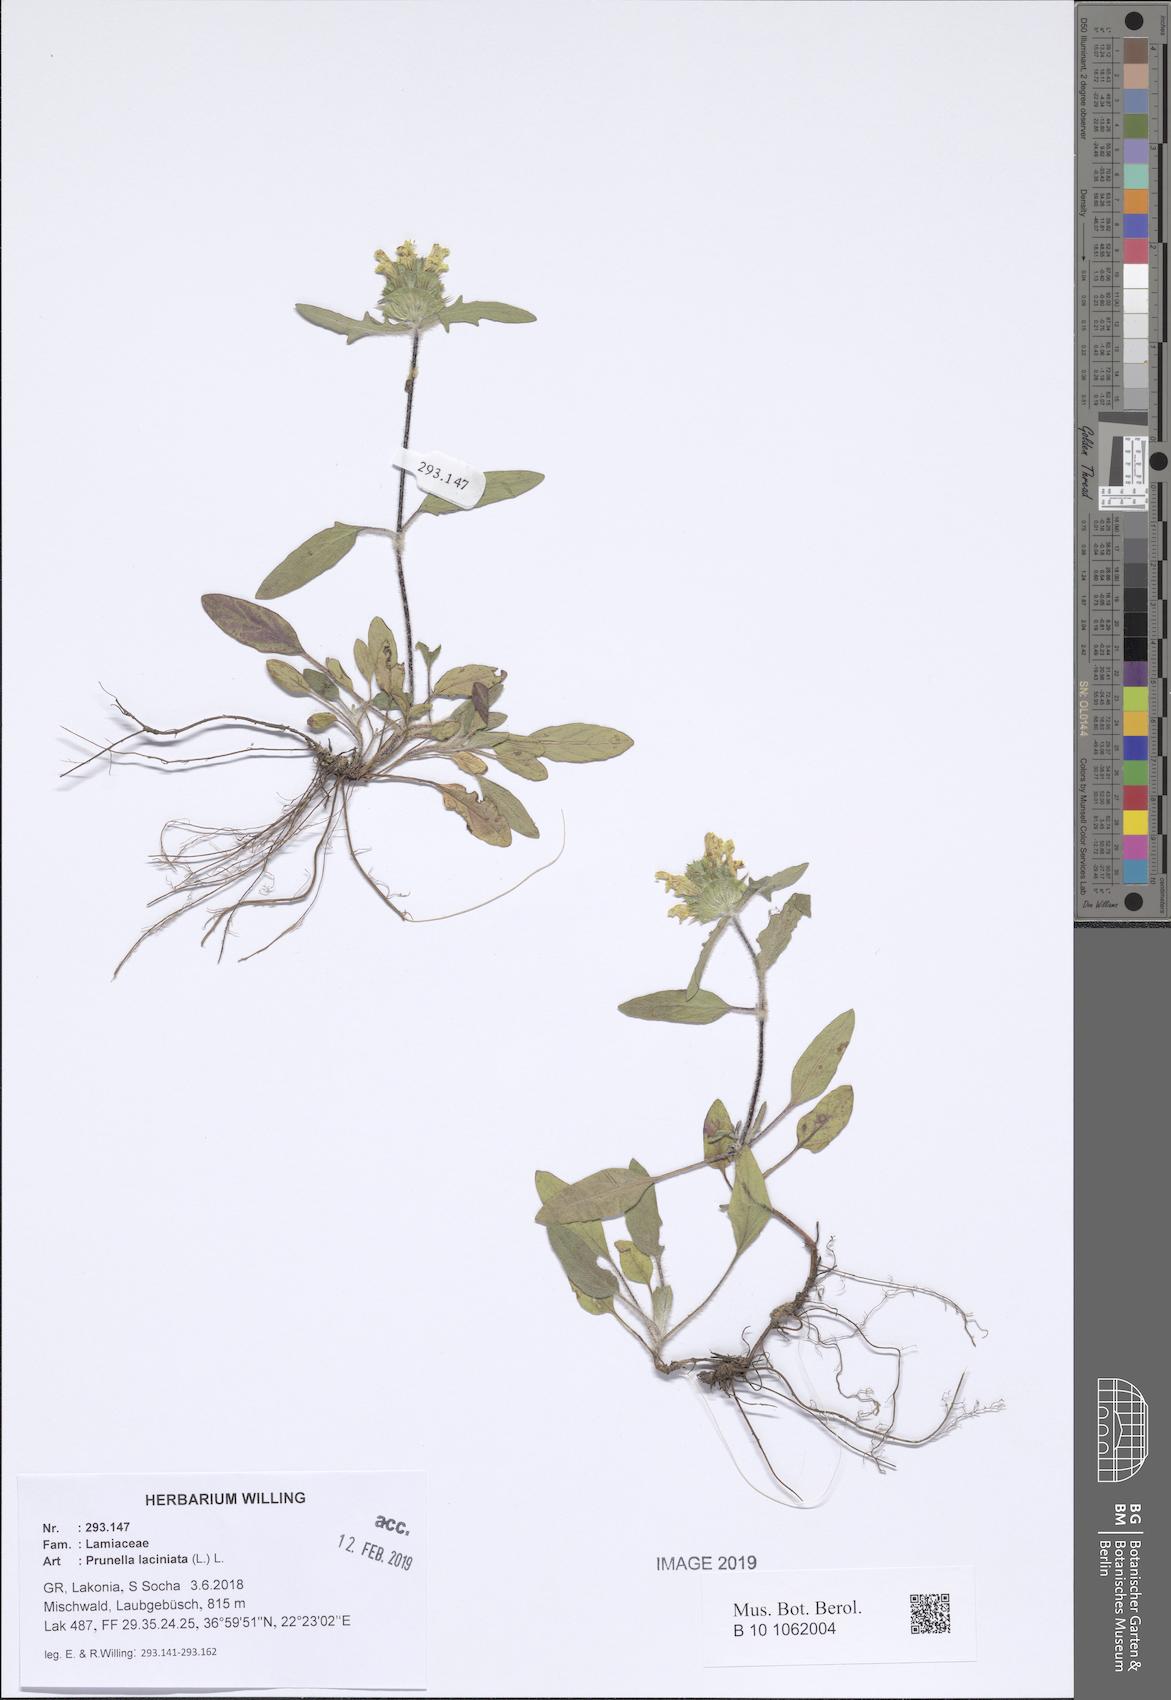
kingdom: Plantae
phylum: Tracheophyta
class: Magnoliopsida
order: Lamiales
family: Lamiaceae
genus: Prunella
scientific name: Prunella laciniata
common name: Cut-leaved selfheal
